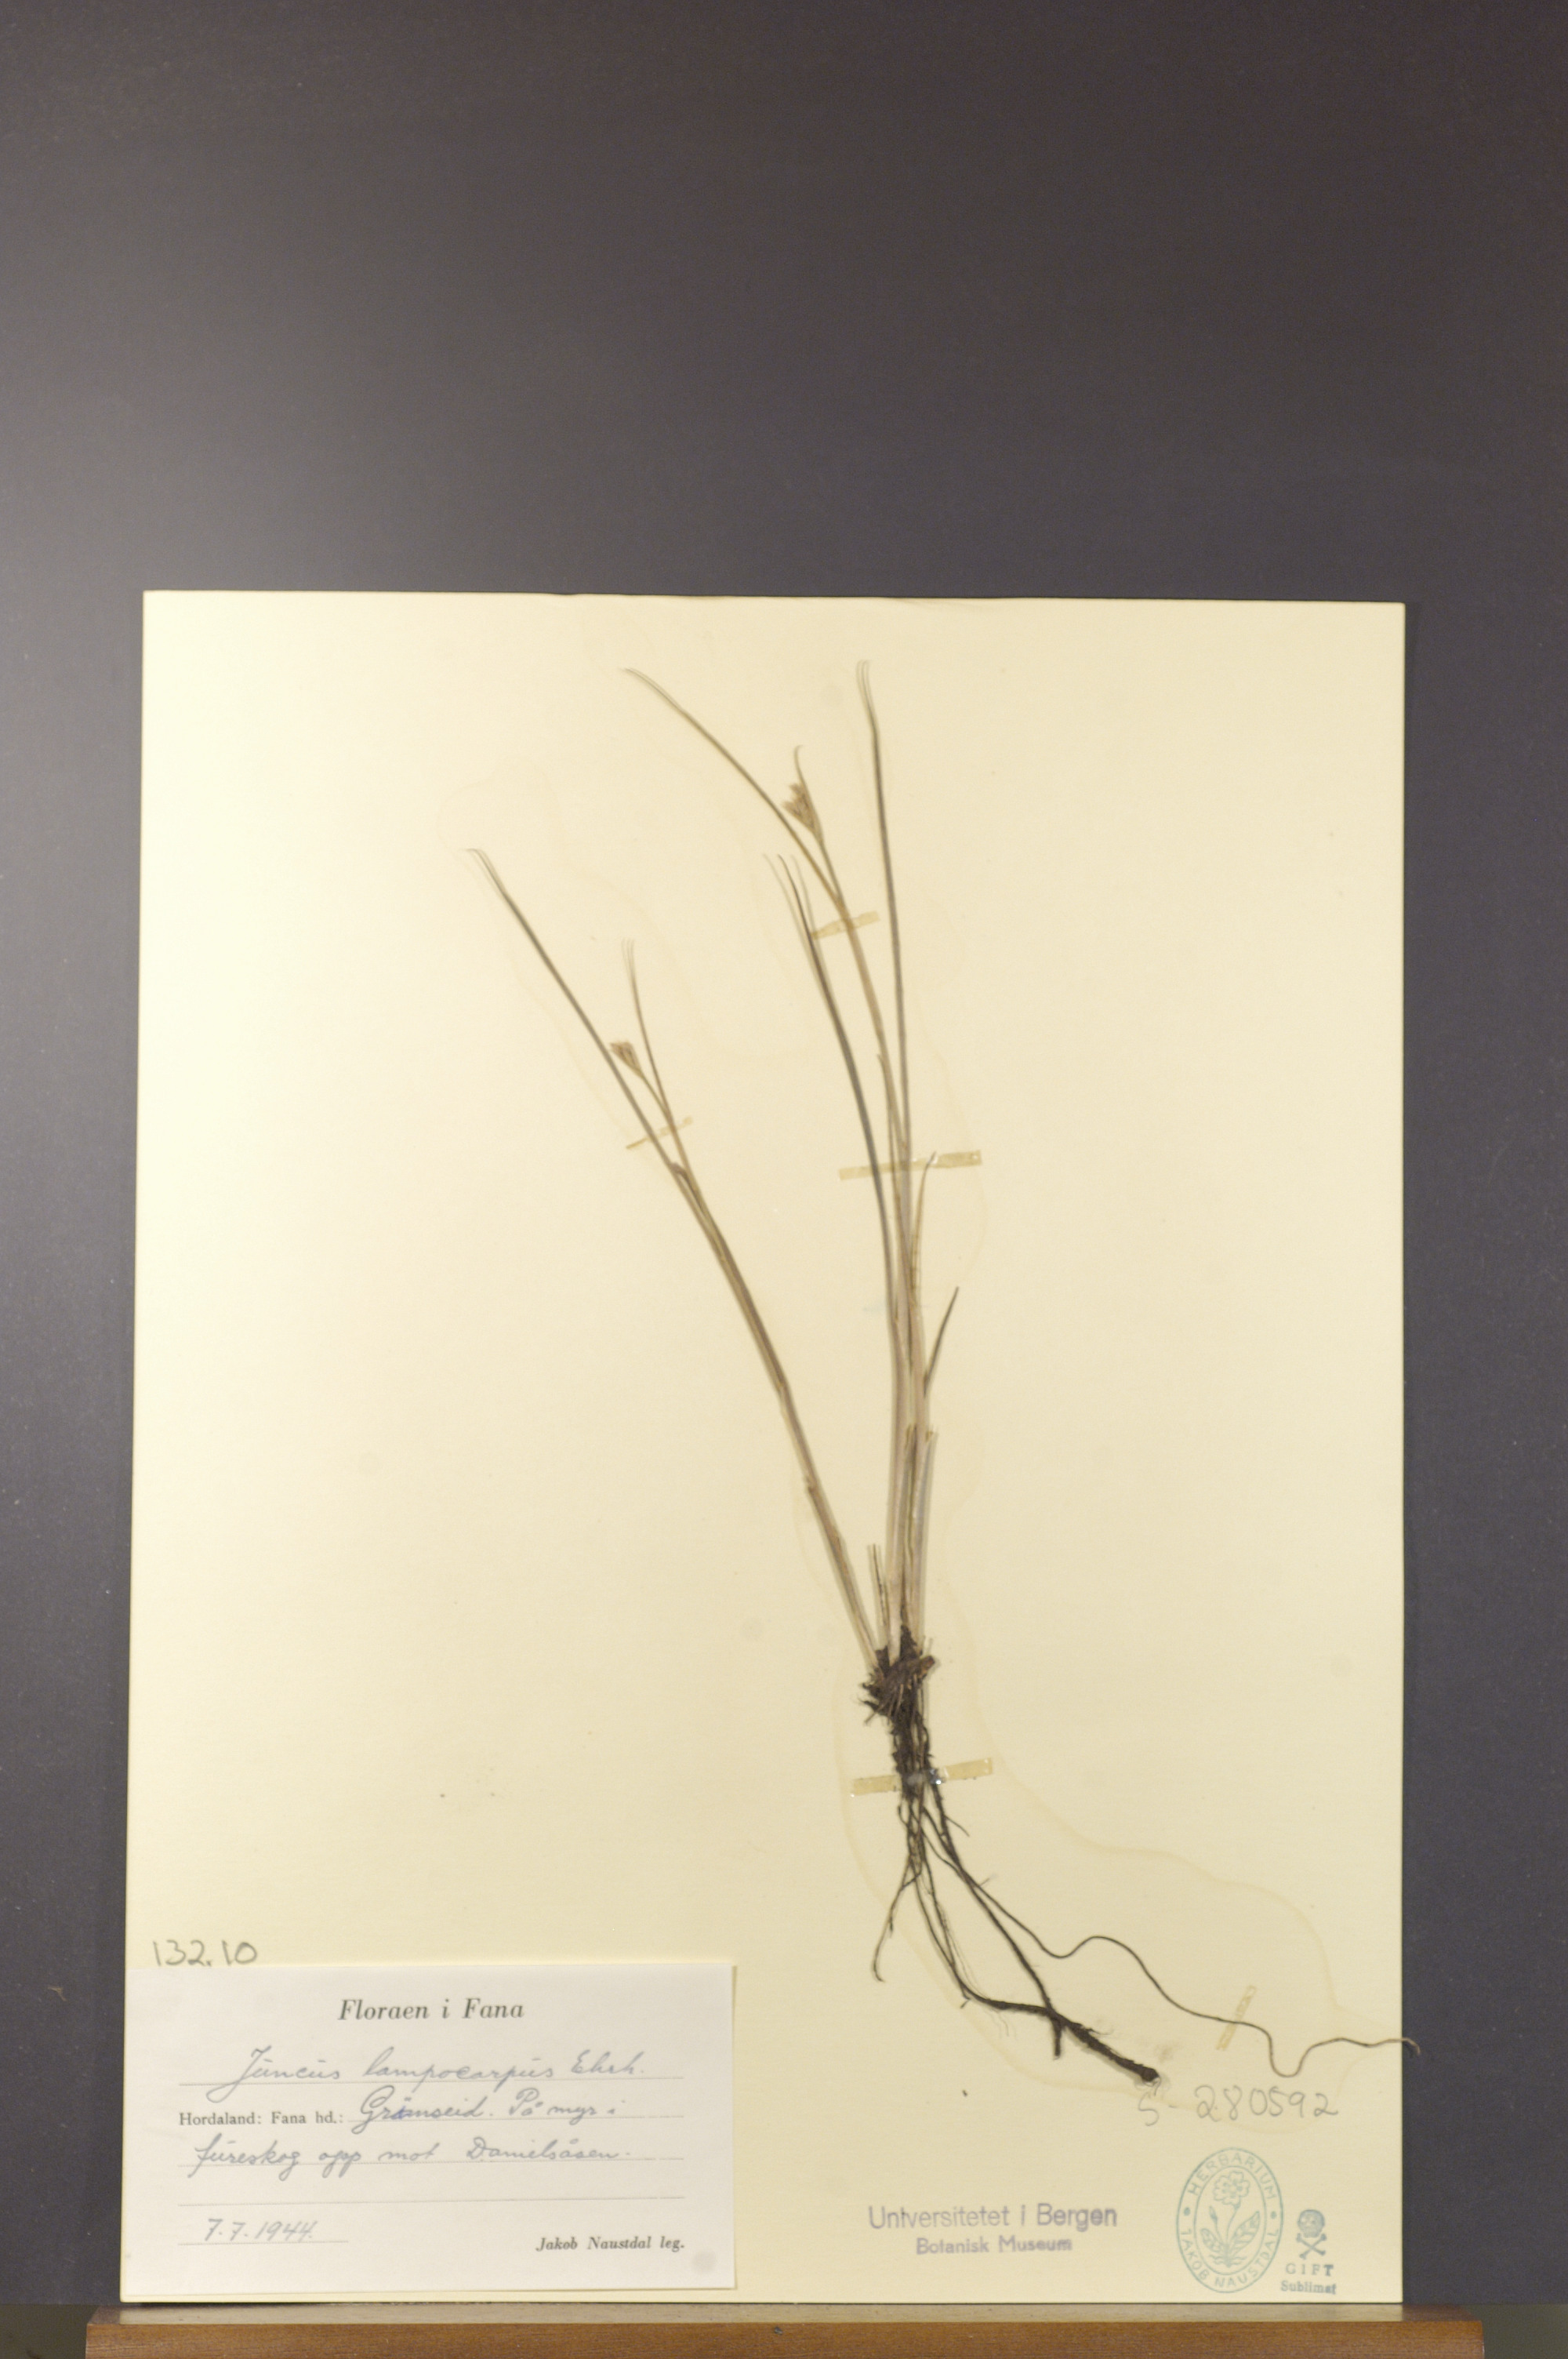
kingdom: Plantae
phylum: Tracheophyta
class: Liliopsida
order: Poales
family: Juncaceae
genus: Juncus
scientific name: Juncus articulatus
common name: Jointed rush
